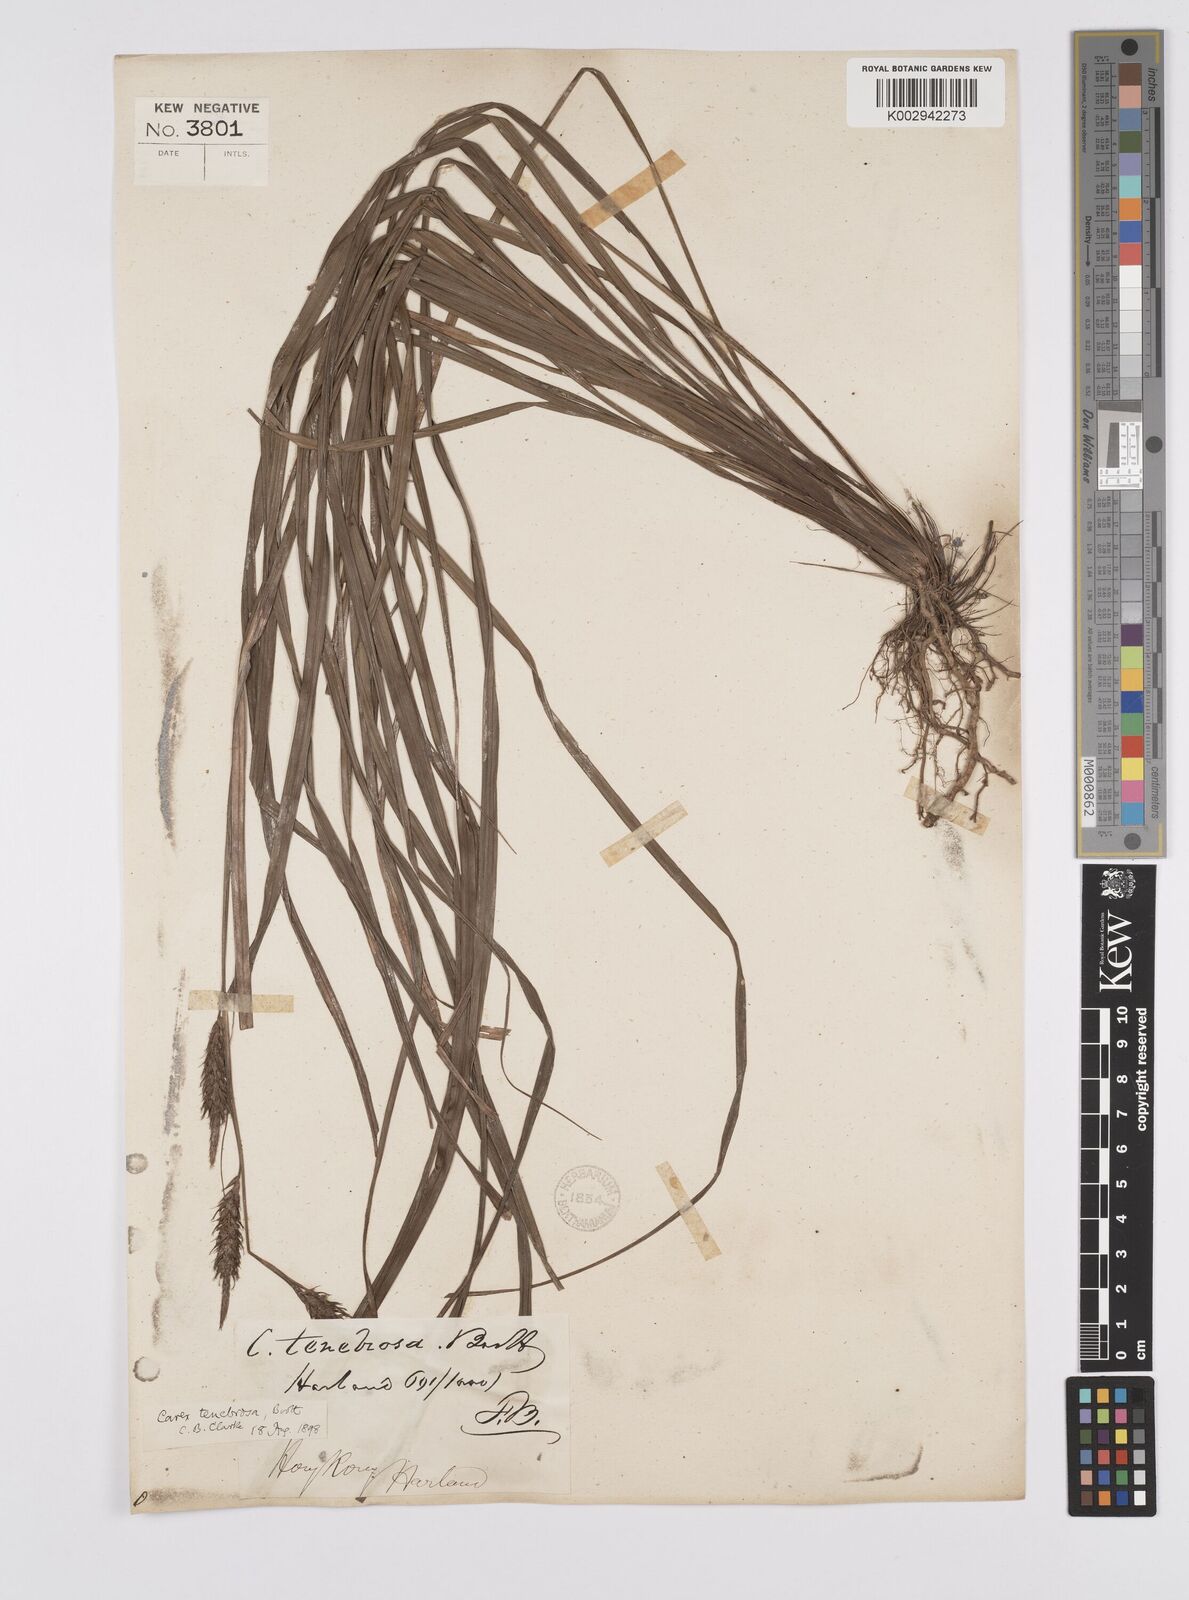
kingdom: Plantae
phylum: Tracheophyta
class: Liliopsida
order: Poales
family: Cyperaceae
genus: Carex
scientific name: Carex tenebrosa
